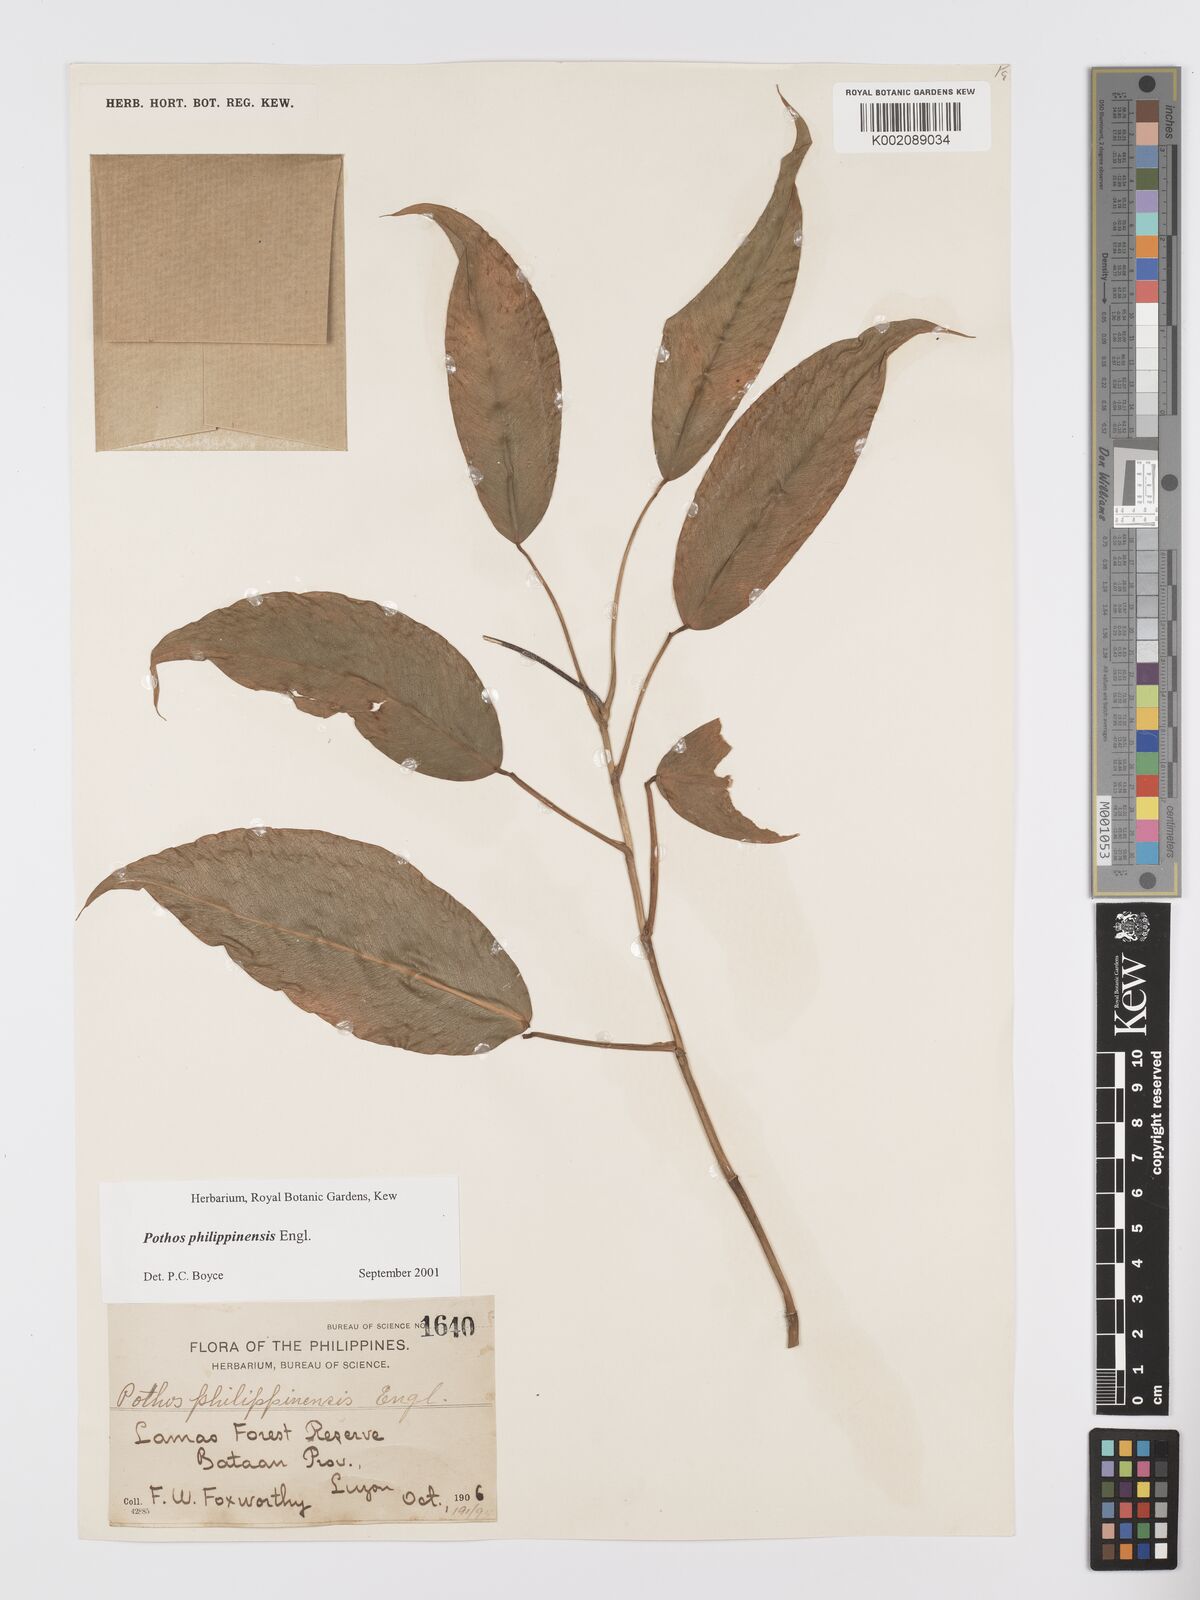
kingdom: Plantae
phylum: Tracheophyta
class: Liliopsida
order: Alismatales
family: Araceae
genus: Pothos
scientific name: Pothos philippinensis
